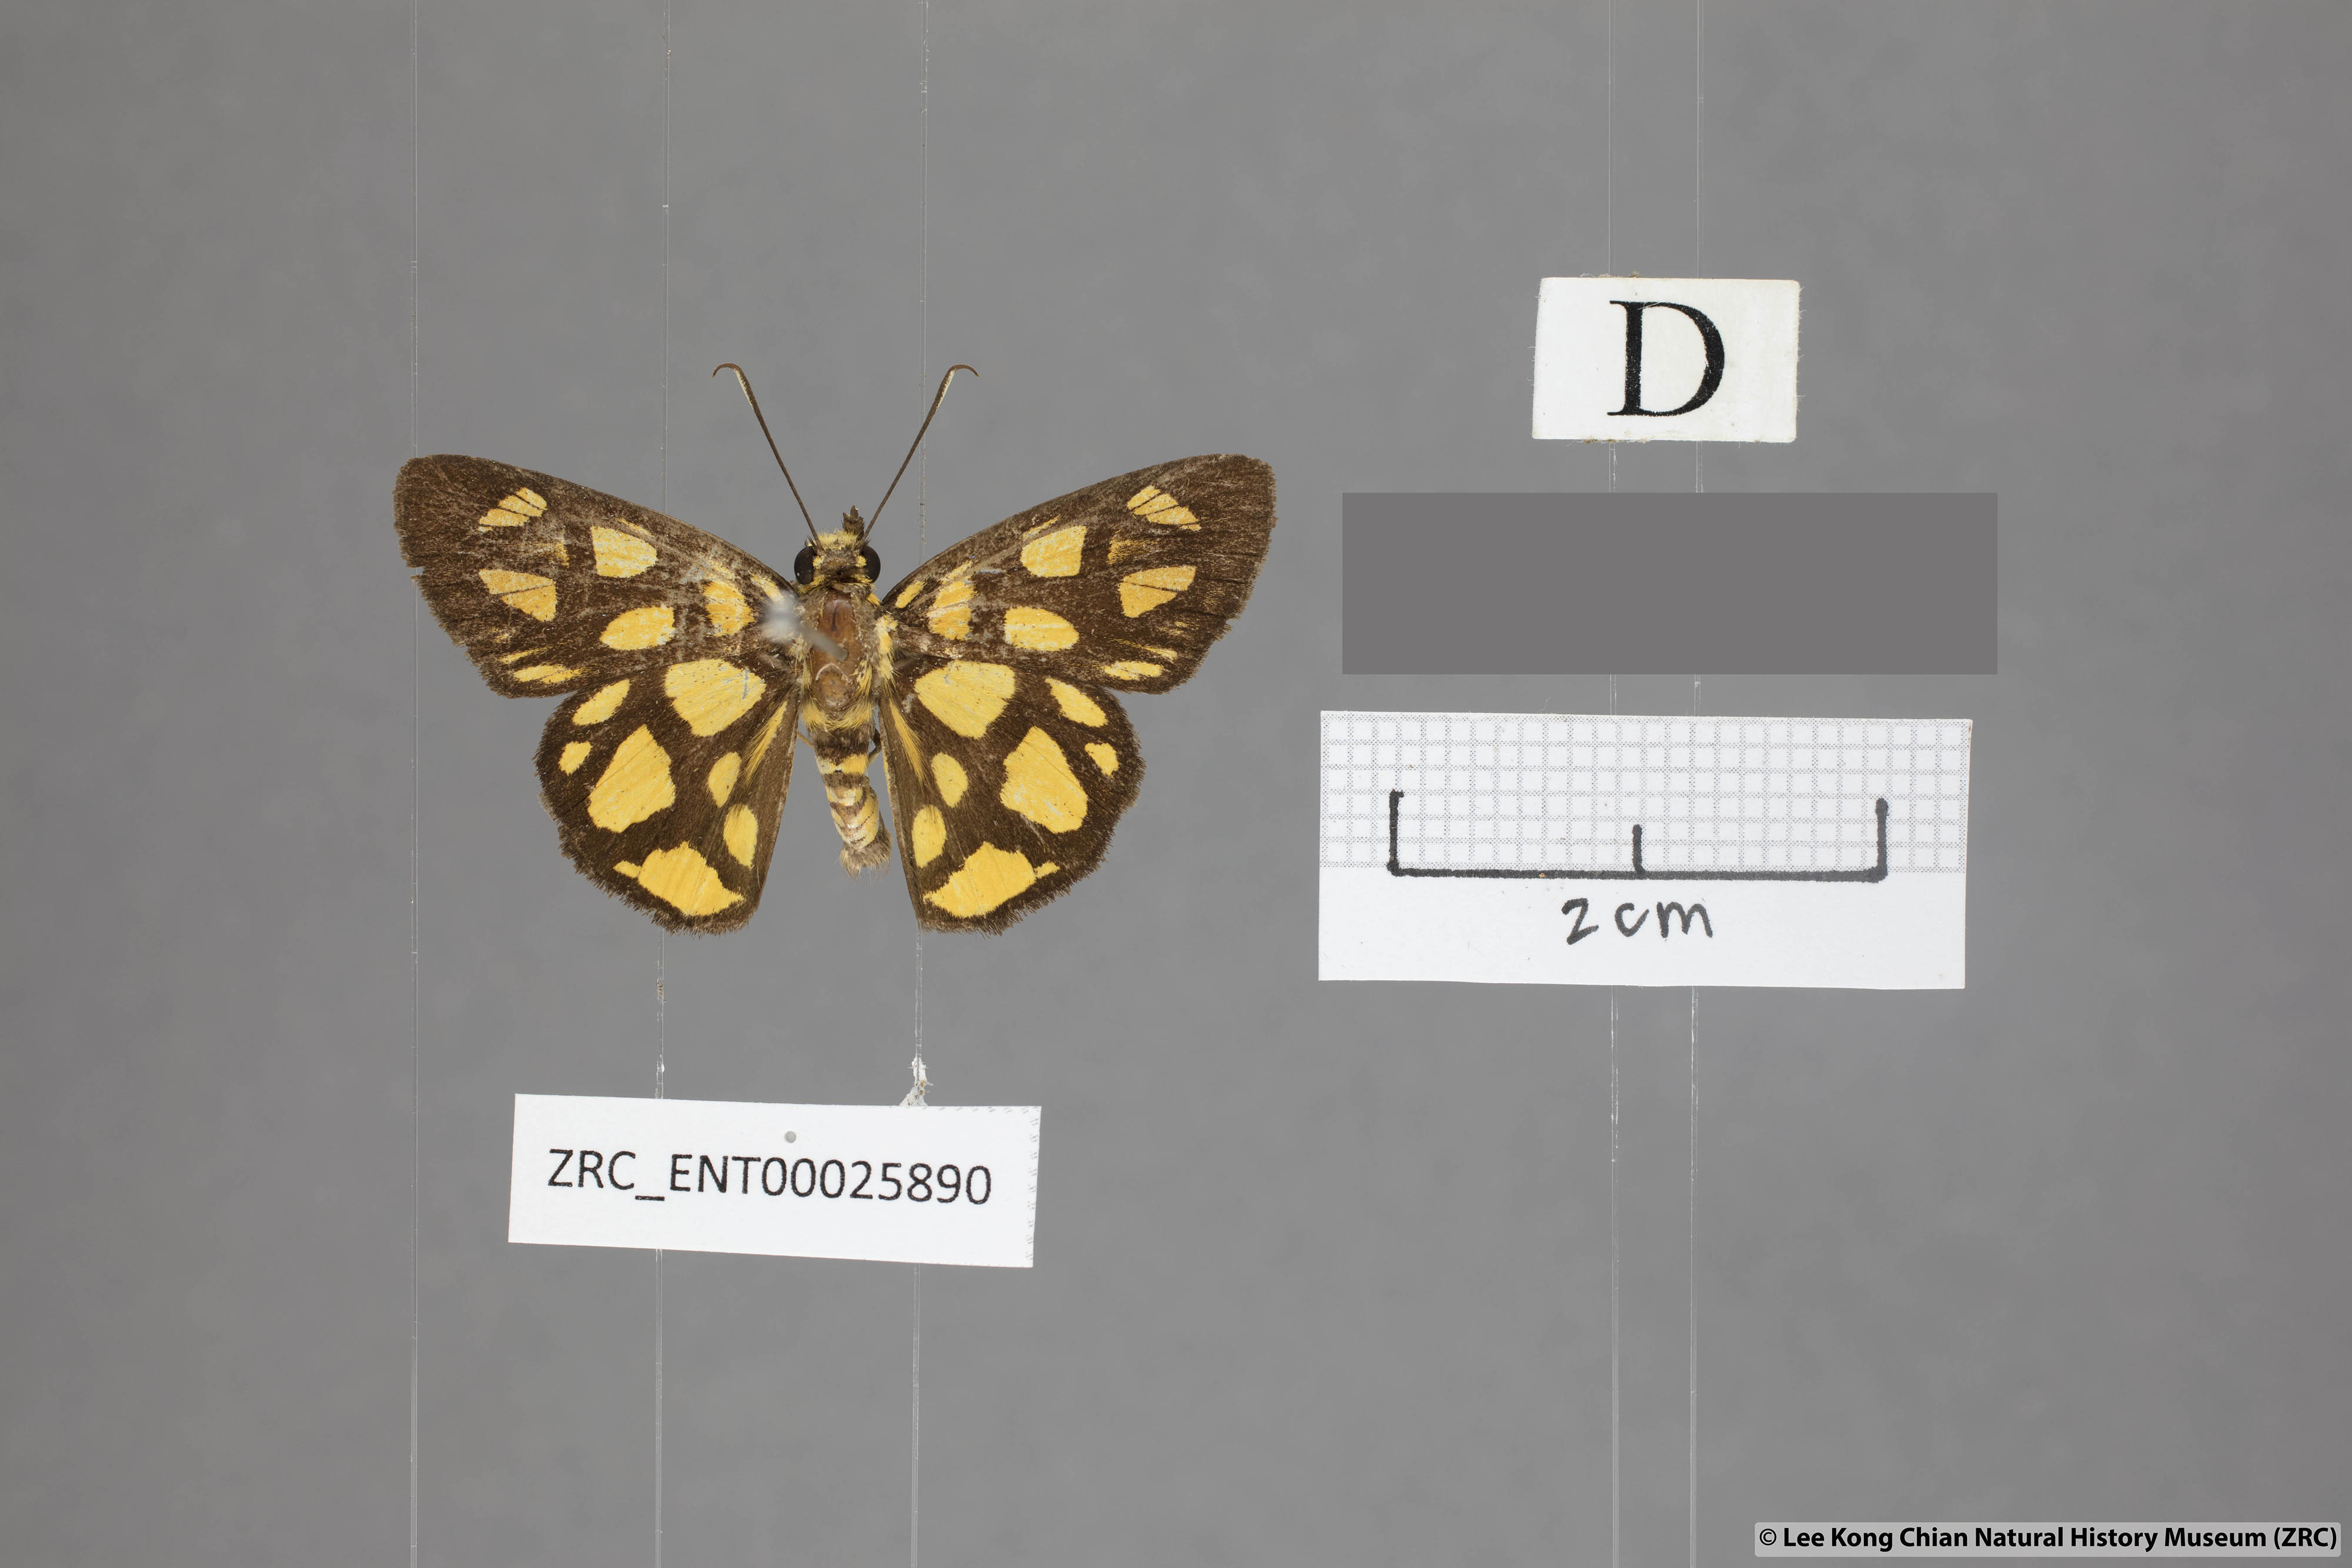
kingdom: Animalia
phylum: Arthropoda
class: Insecta
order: Lepidoptera
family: Hesperiidae
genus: Odina
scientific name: Odina hieroglyphica
